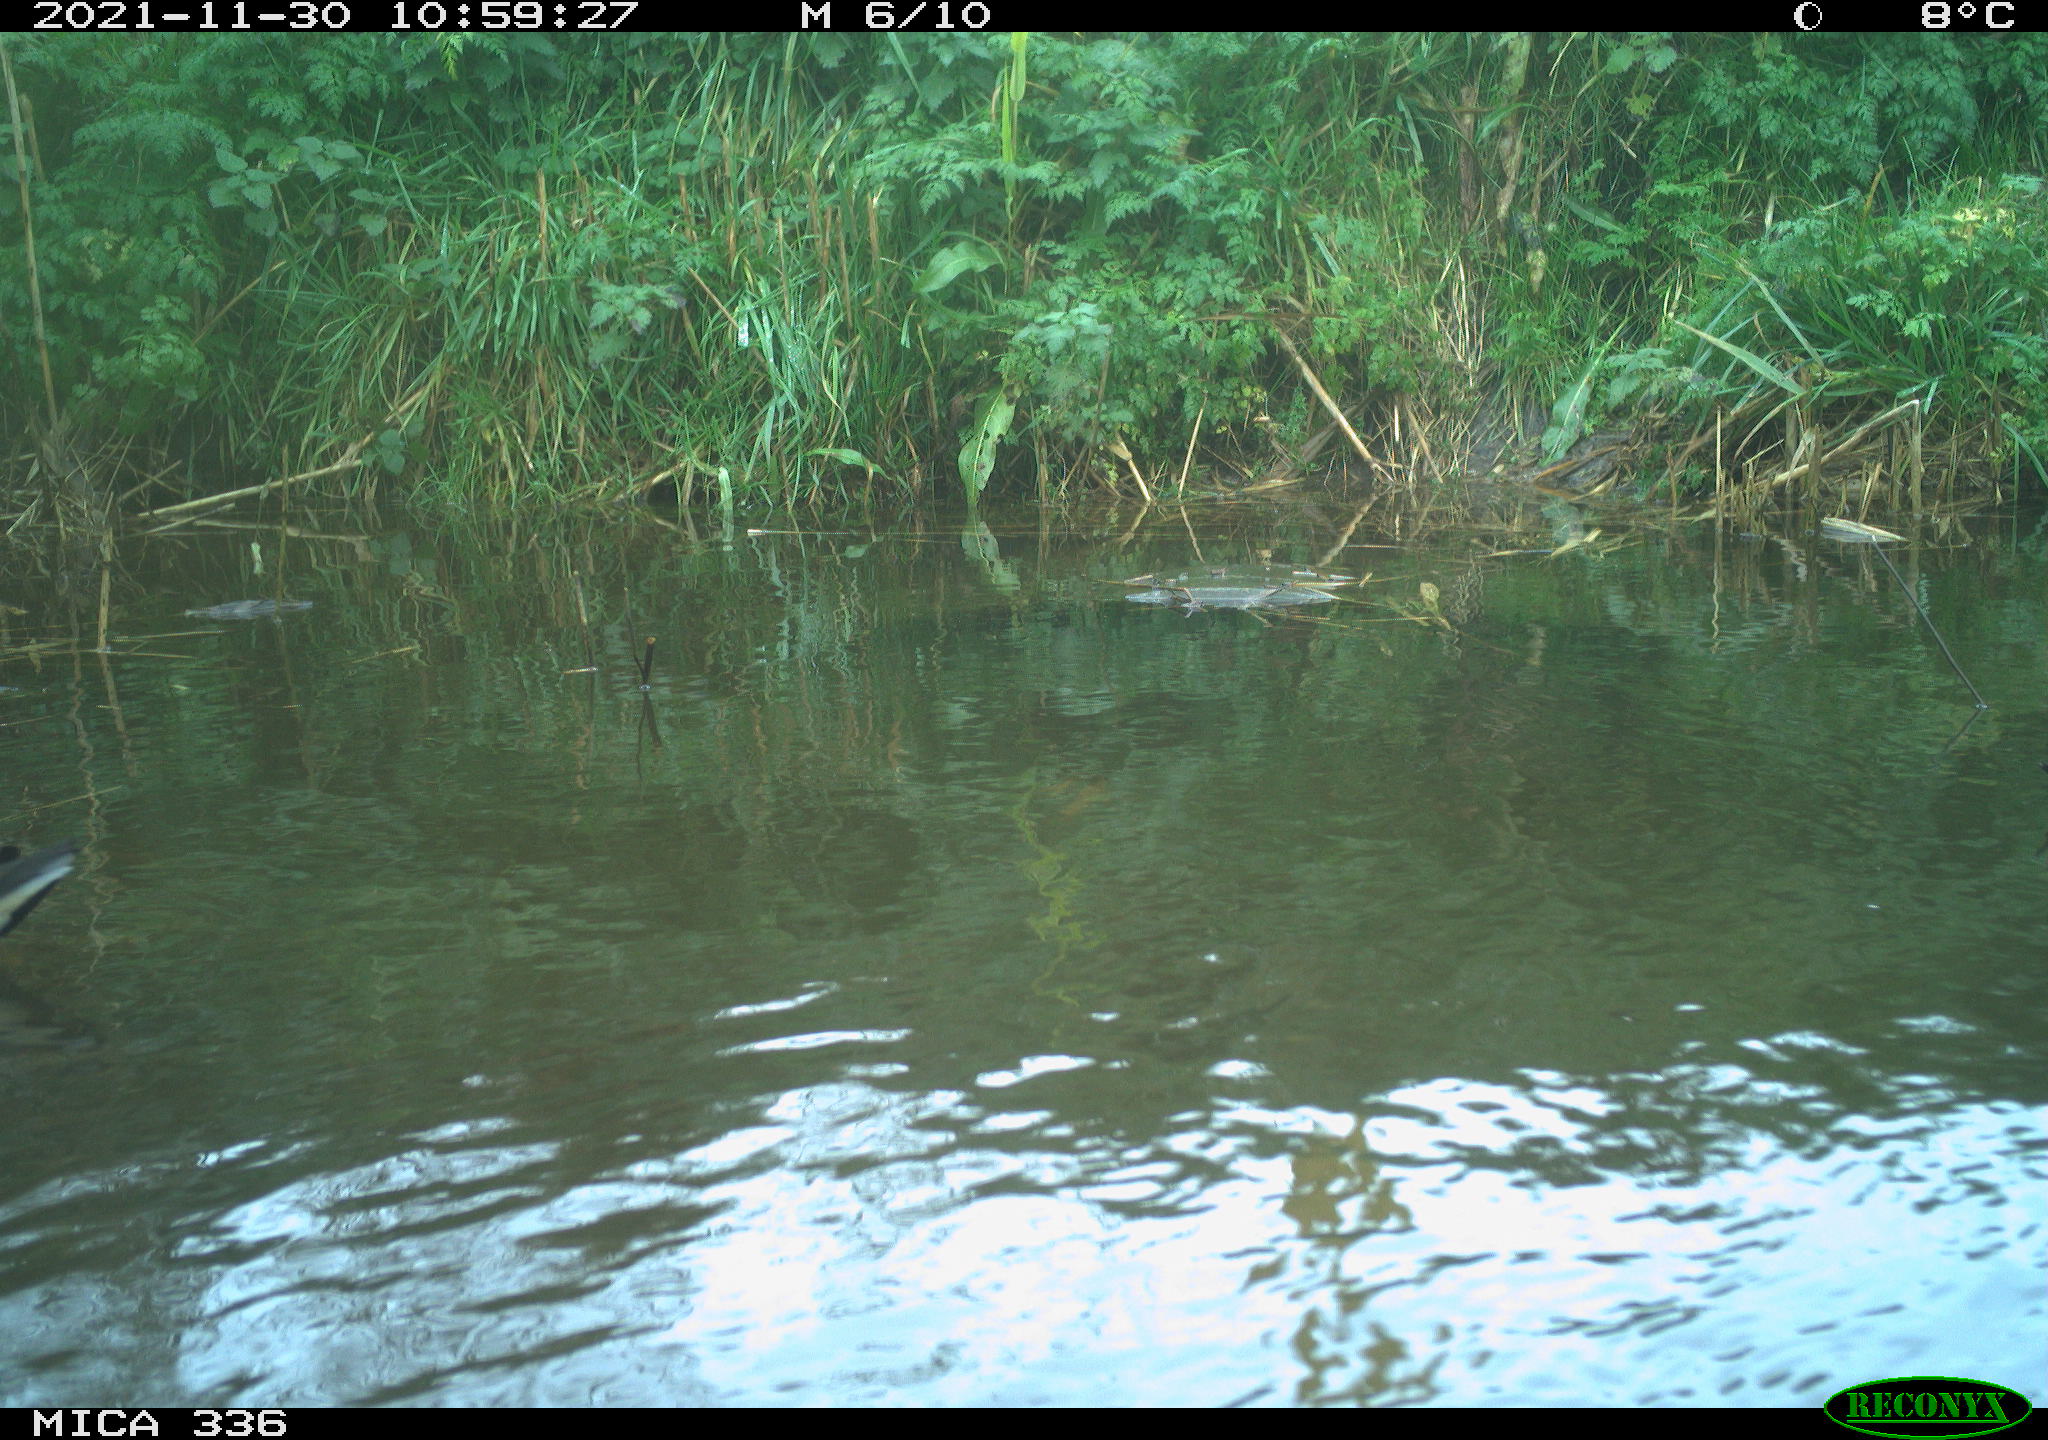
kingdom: Animalia
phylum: Chordata
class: Aves
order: Gruiformes
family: Rallidae
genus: Gallinula
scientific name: Gallinula chloropus
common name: Common moorhen
